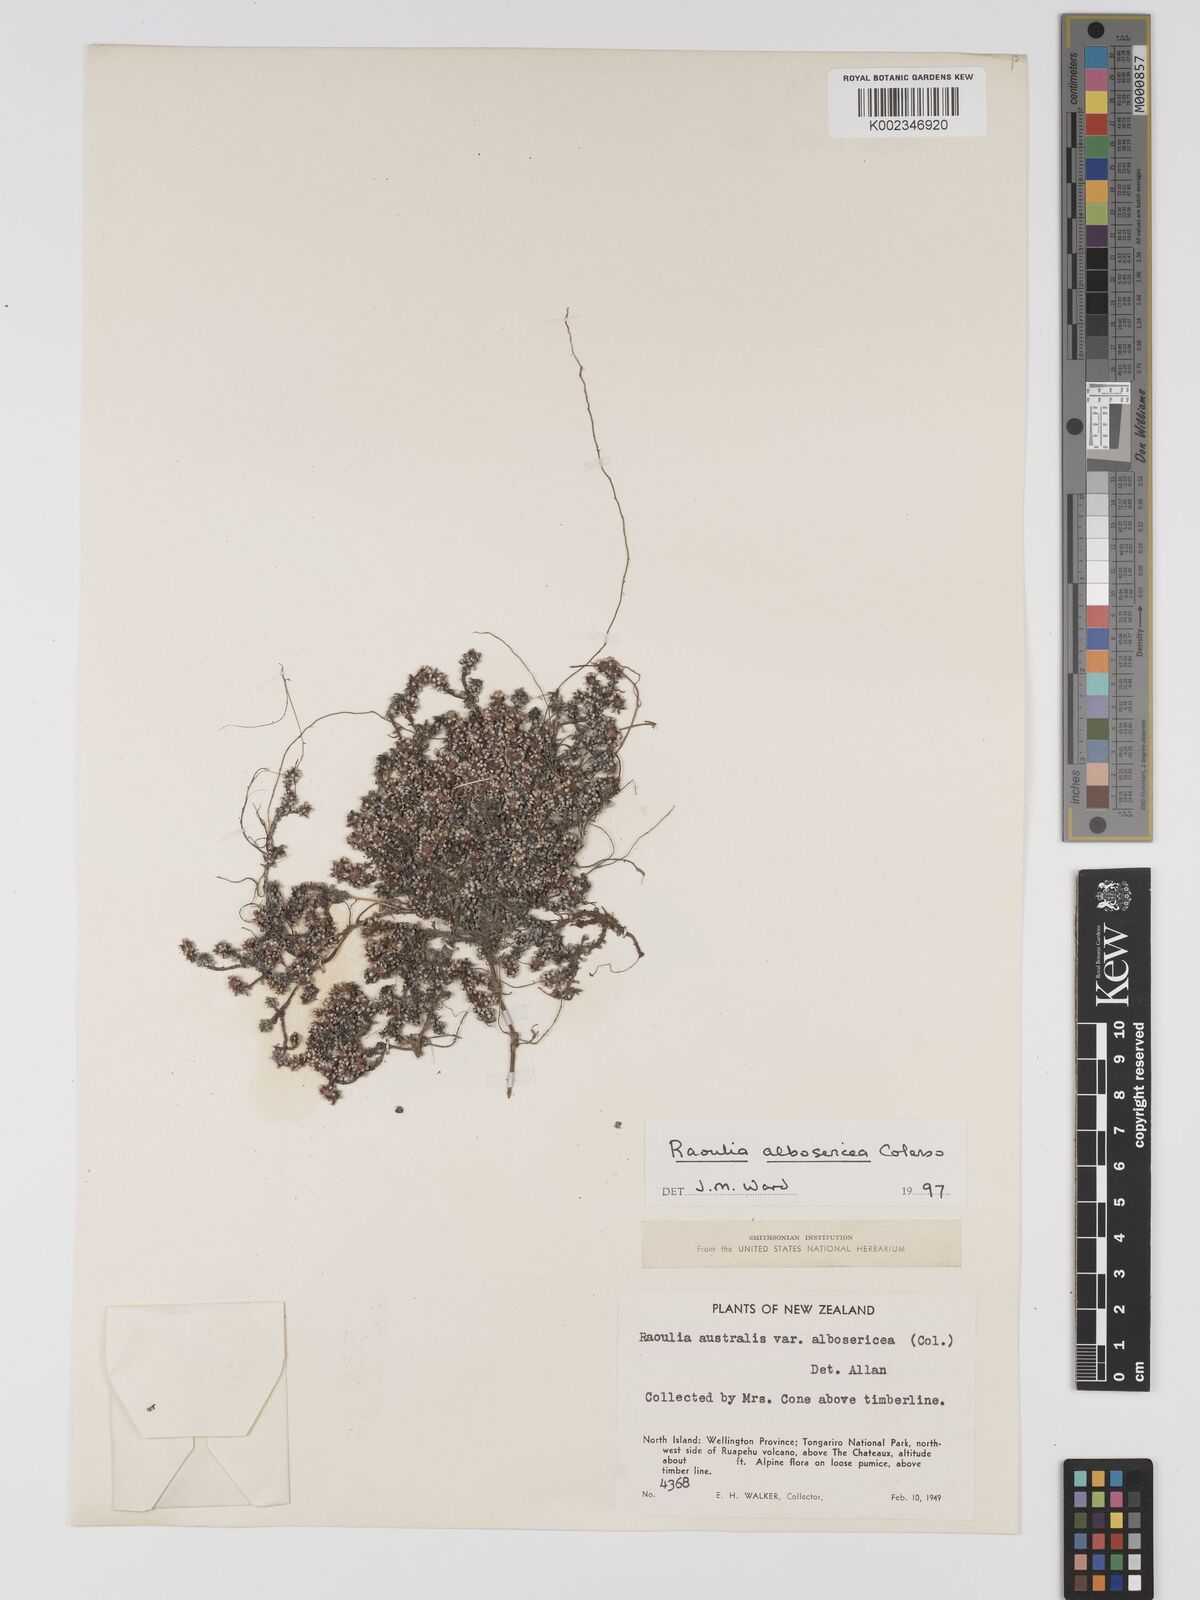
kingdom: Plantae
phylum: Tracheophyta
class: Magnoliopsida
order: Asterales
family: Asteraceae
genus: Raoulia
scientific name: Raoulia australis
